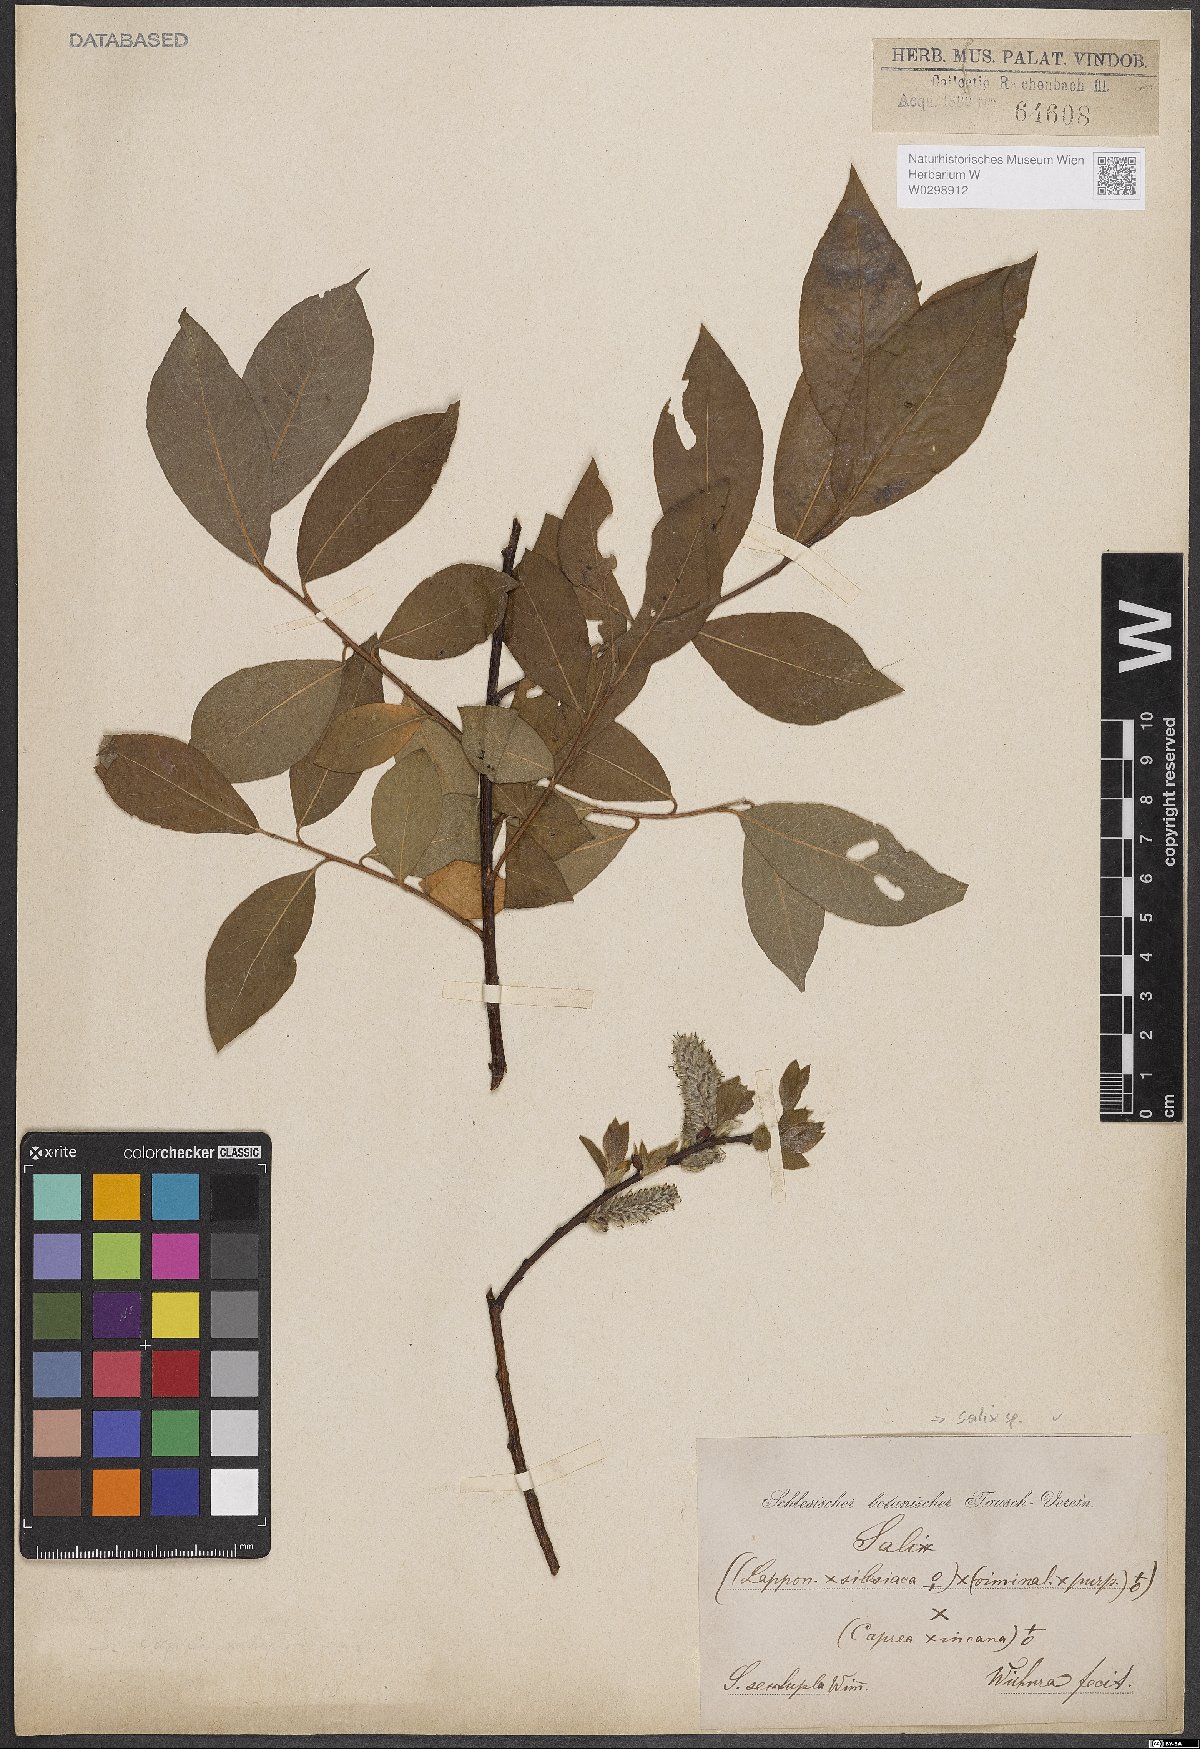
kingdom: Plantae
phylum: Tracheophyta
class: Magnoliopsida
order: Malpighiales
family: Salicaceae
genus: Salix
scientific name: Salix
